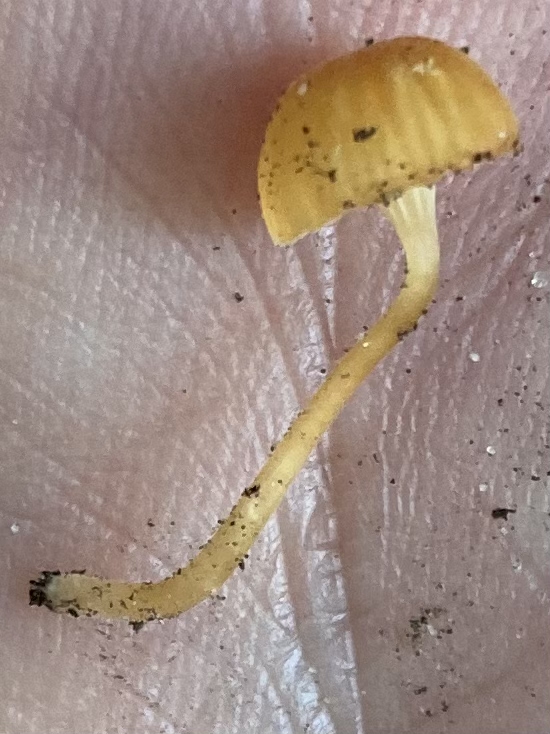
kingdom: Fungi
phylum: Basidiomycota
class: Agaricomycetes
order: Hymenochaetales
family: Rickenellaceae
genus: Rickenella
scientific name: Rickenella fibula
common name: orange mosnavlehat
